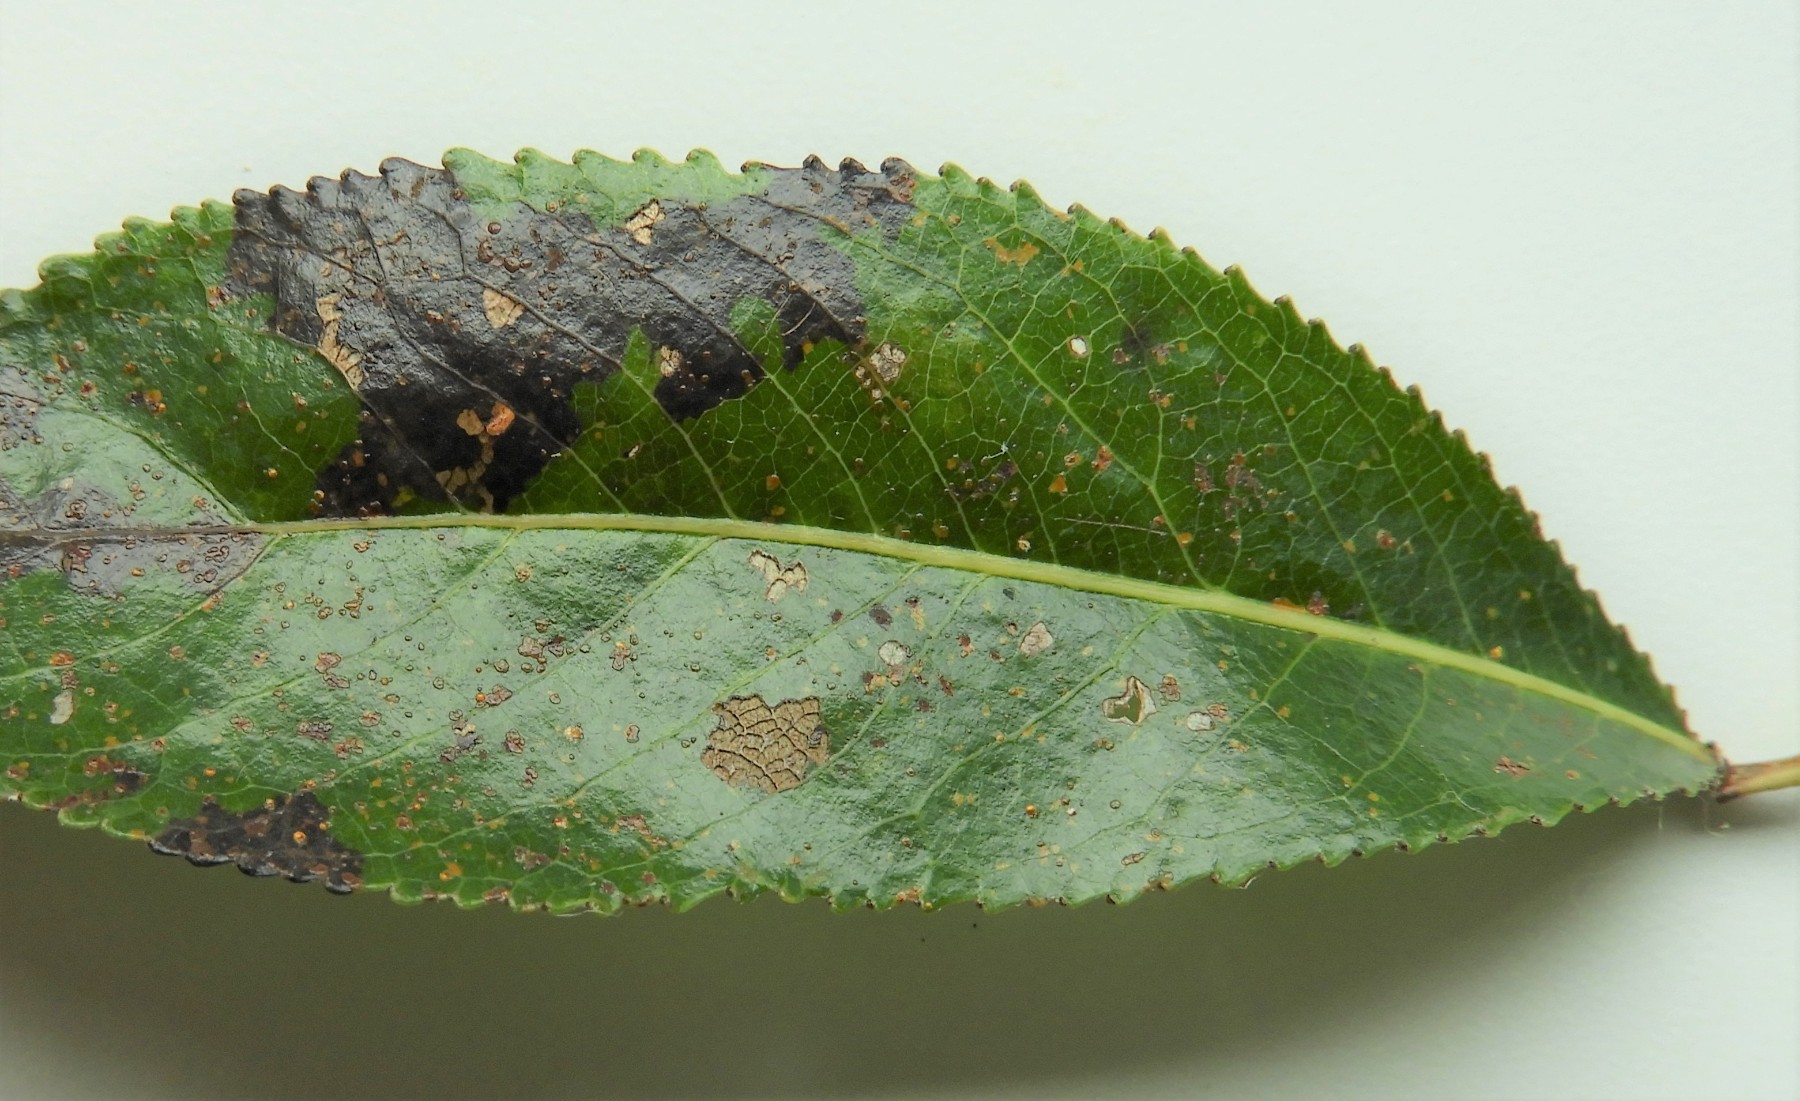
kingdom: Fungi
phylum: Basidiomycota
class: Pucciniomycetes
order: Pucciniales
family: Melampsoraceae
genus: Melampsora
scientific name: Melampsora epitea
